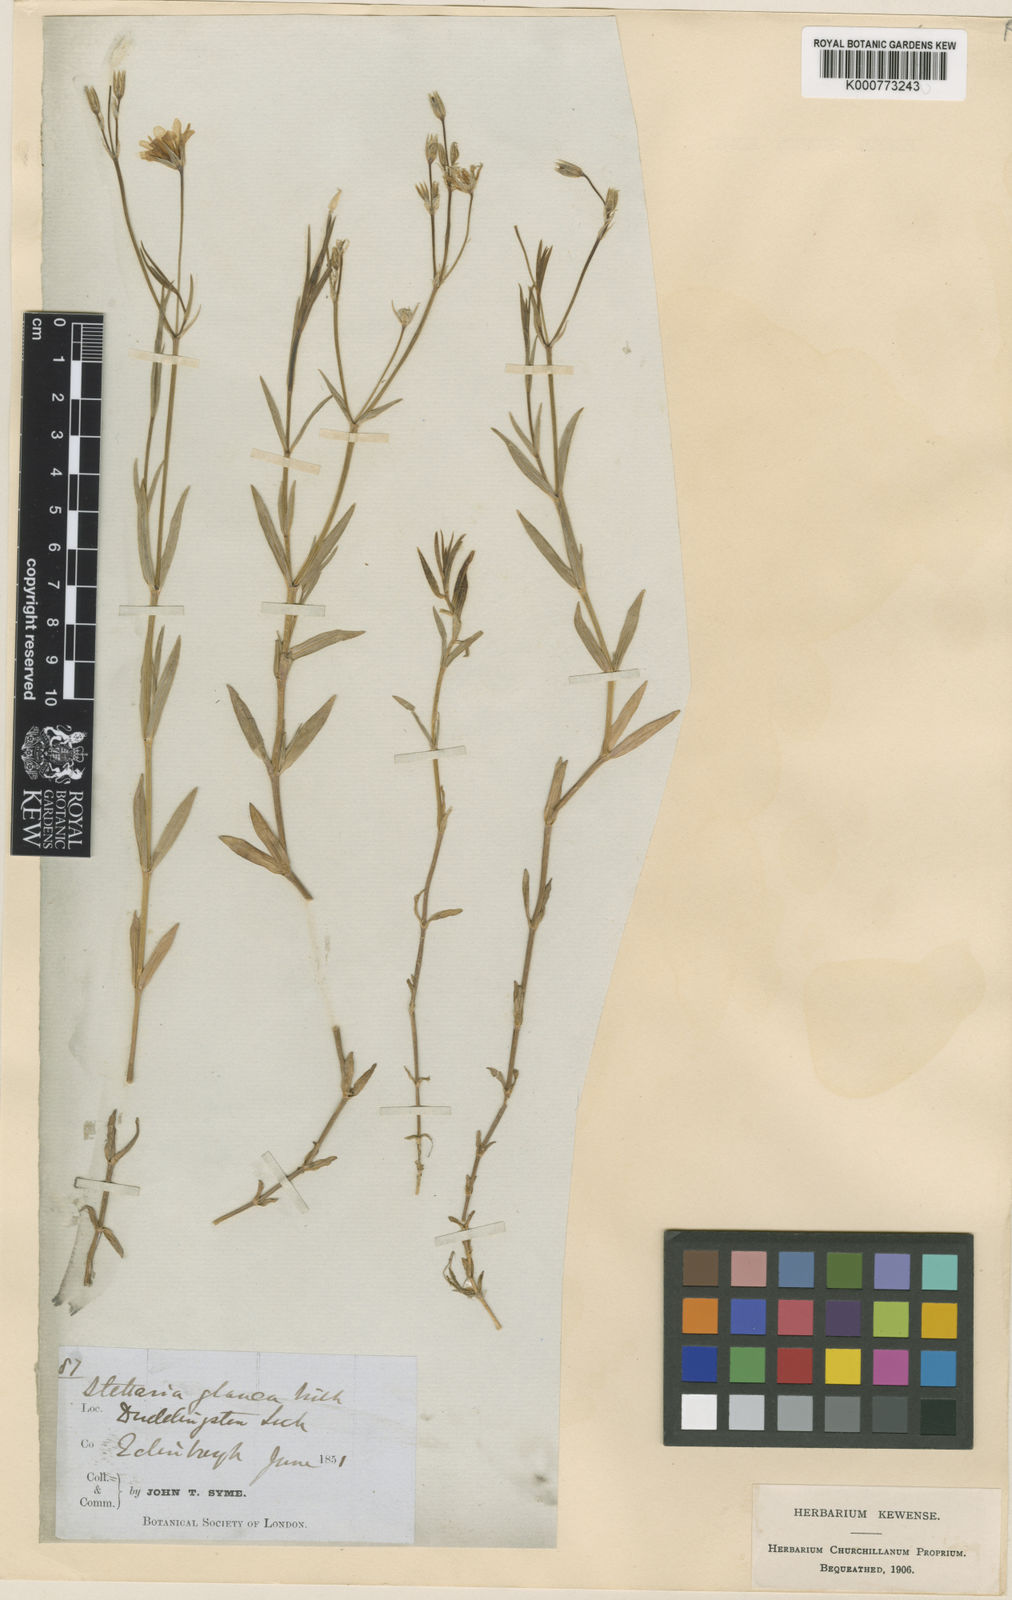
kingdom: Plantae
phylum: Tracheophyta
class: Magnoliopsida
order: Caryophyllales
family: Caryophyllaceae
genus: Stellaria
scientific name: Stellaria
